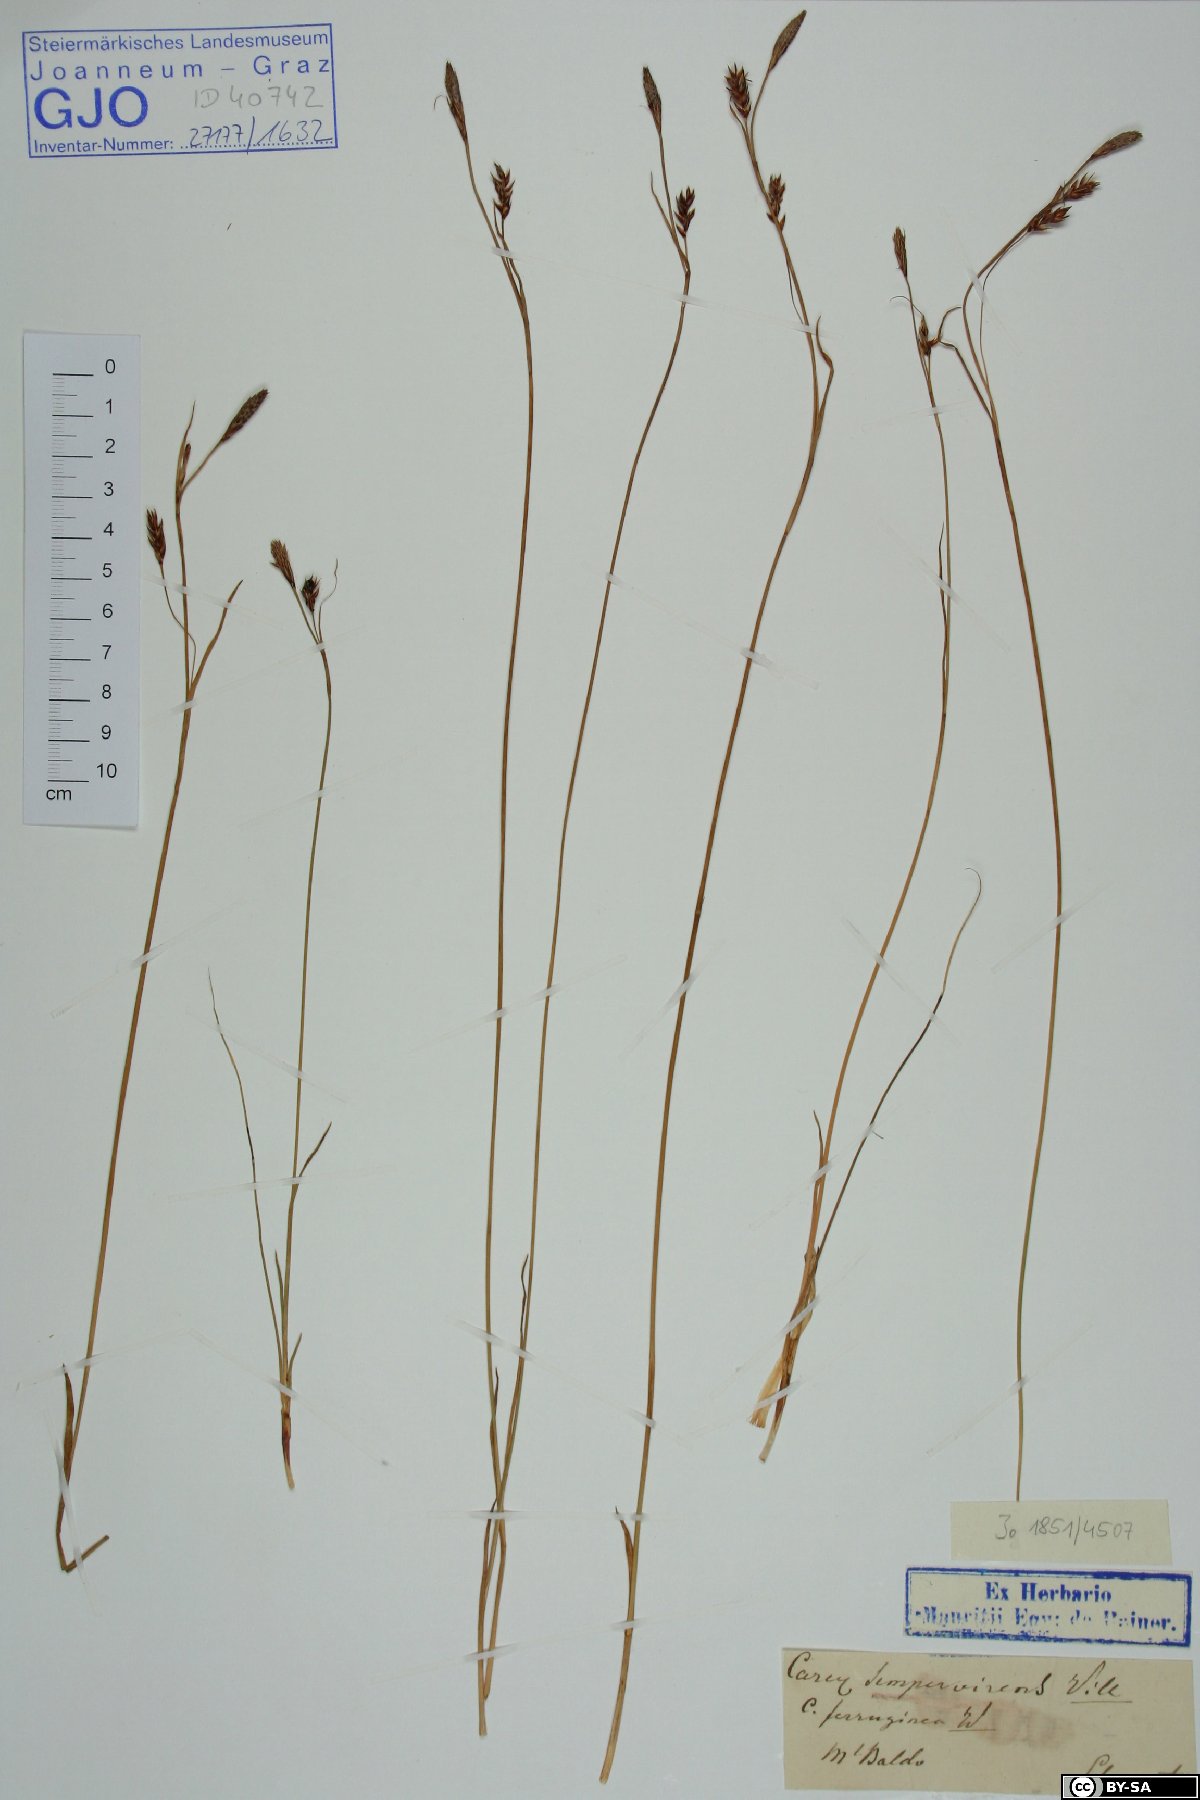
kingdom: Plantae
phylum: Tracheophyta
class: Liliopsida
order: Poales
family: Cyperaceae
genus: Carex
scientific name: Carex sempervirens
